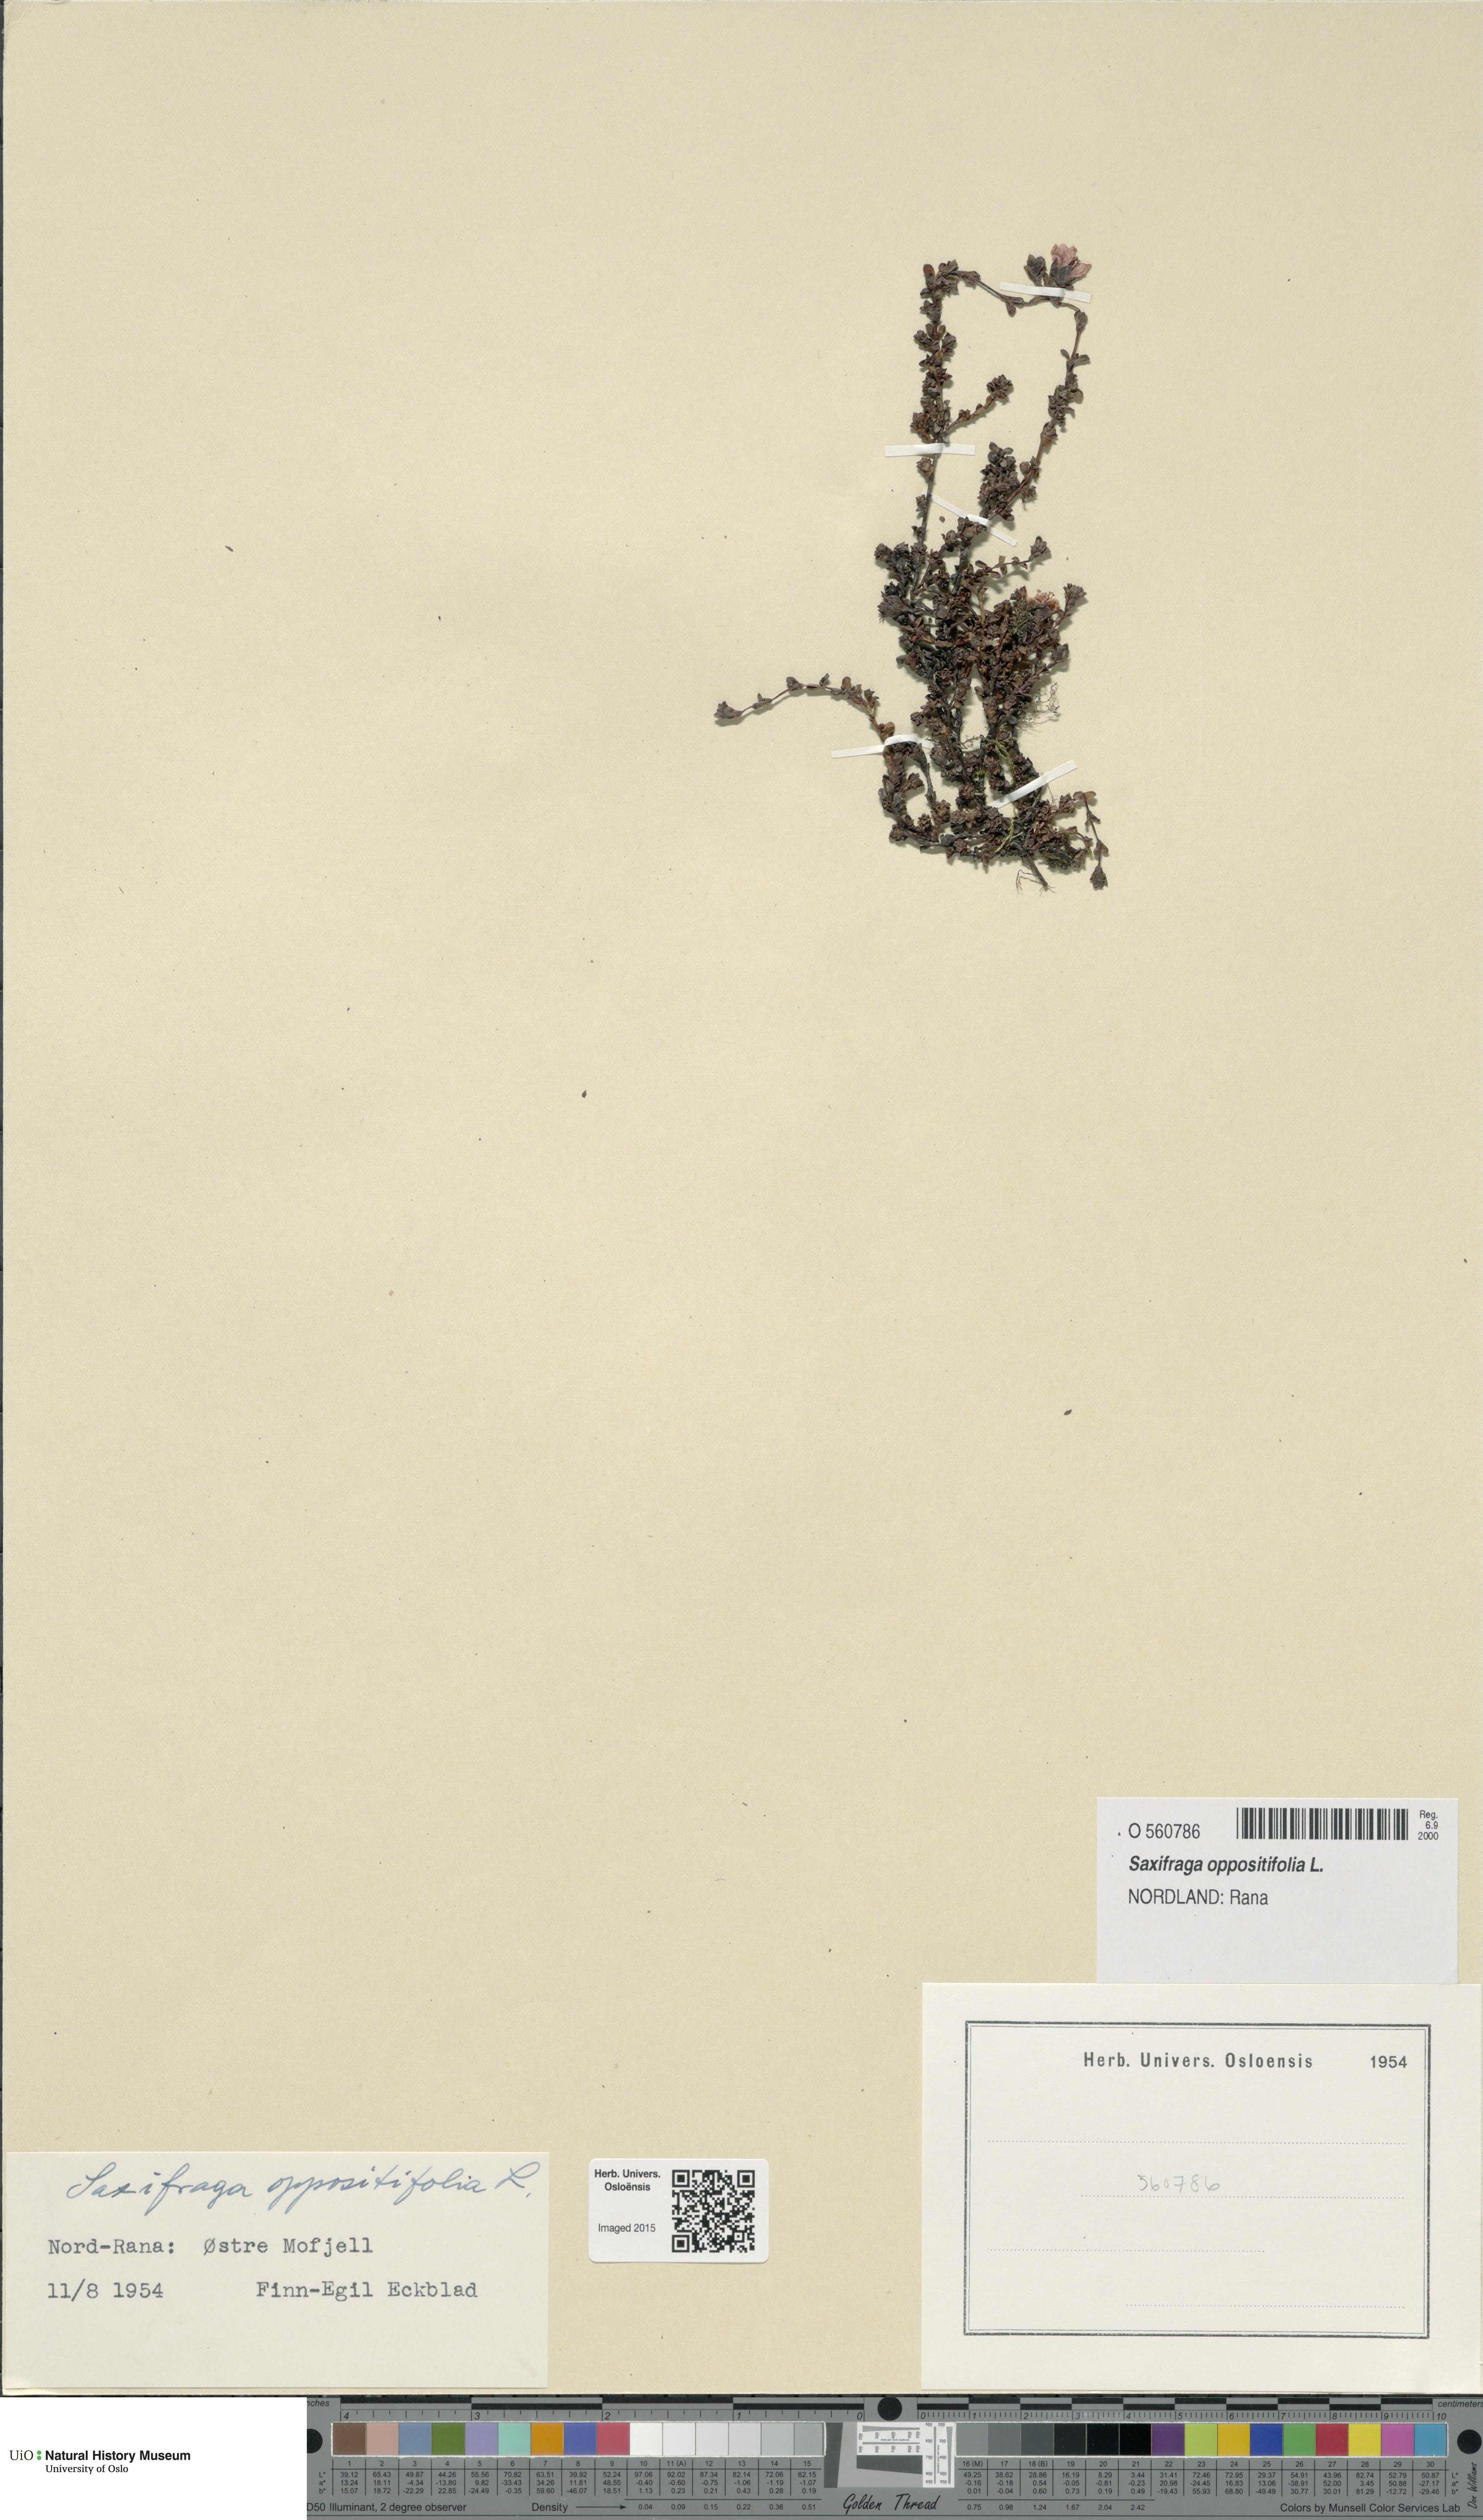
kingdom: Plantae
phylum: Tracheophyta
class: Magnoliopsida
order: Saxifragales
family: Saxifragaceae
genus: Saxifraga
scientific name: Saxifraga oppositifolia
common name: Purple saxifrage
